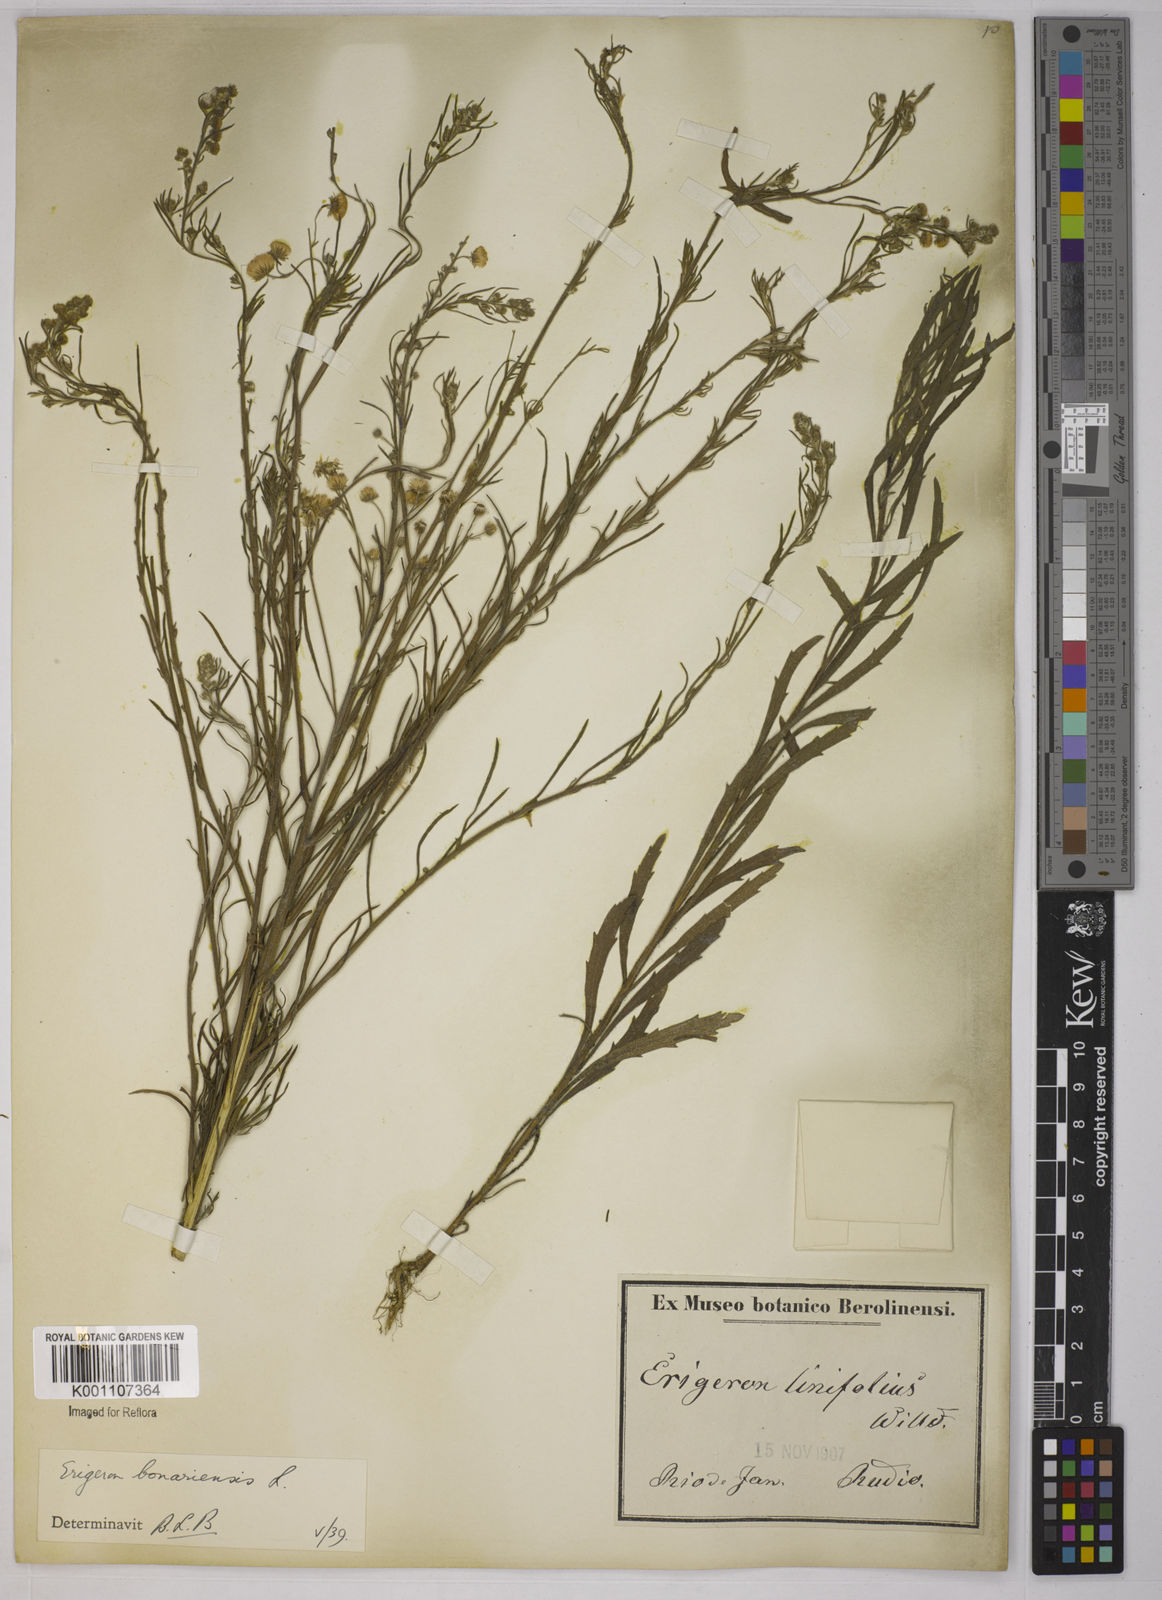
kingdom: Plantae
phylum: Tracheophyta
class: Magnoliopsida
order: Asterales
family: Asteraceae
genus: Erigeron
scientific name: Erigeron bonariensis
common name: Argentine fleabane
